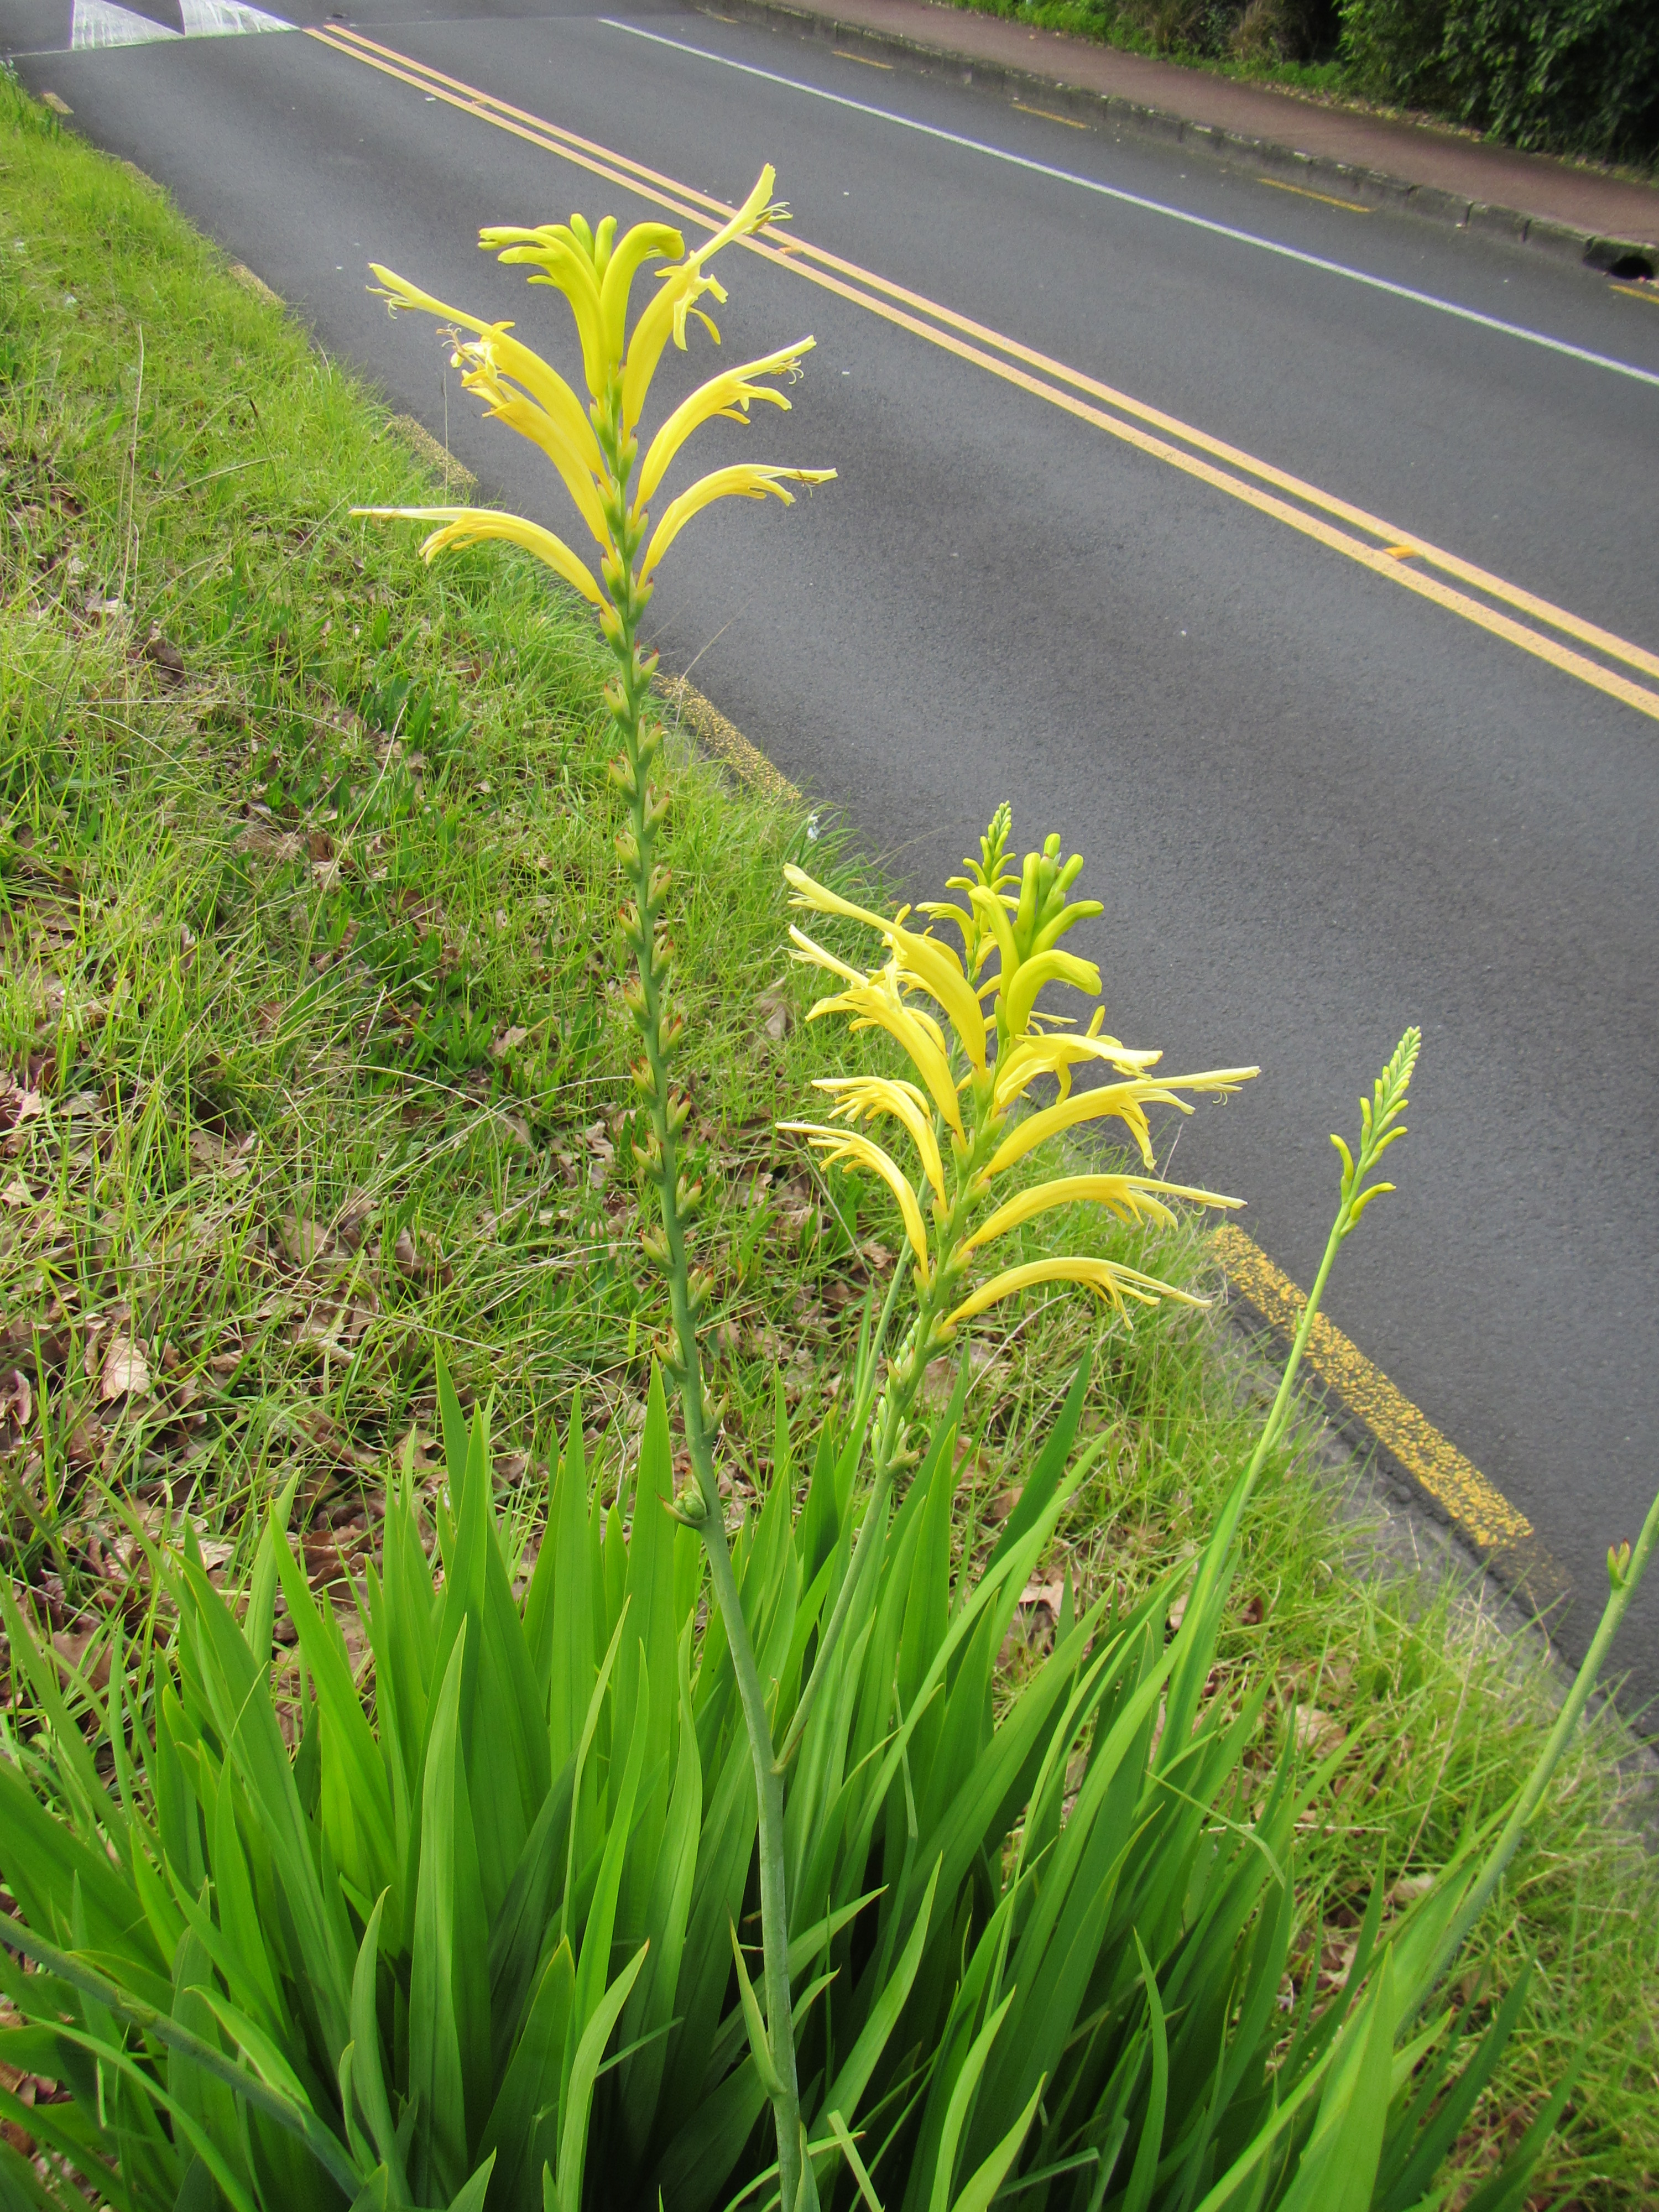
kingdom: Plantae
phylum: Tracheophyta
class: Liliopsida
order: Asparagales
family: Iridaceae
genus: Chasmanthe
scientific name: Chasmanthe floribunda
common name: African cornflag
